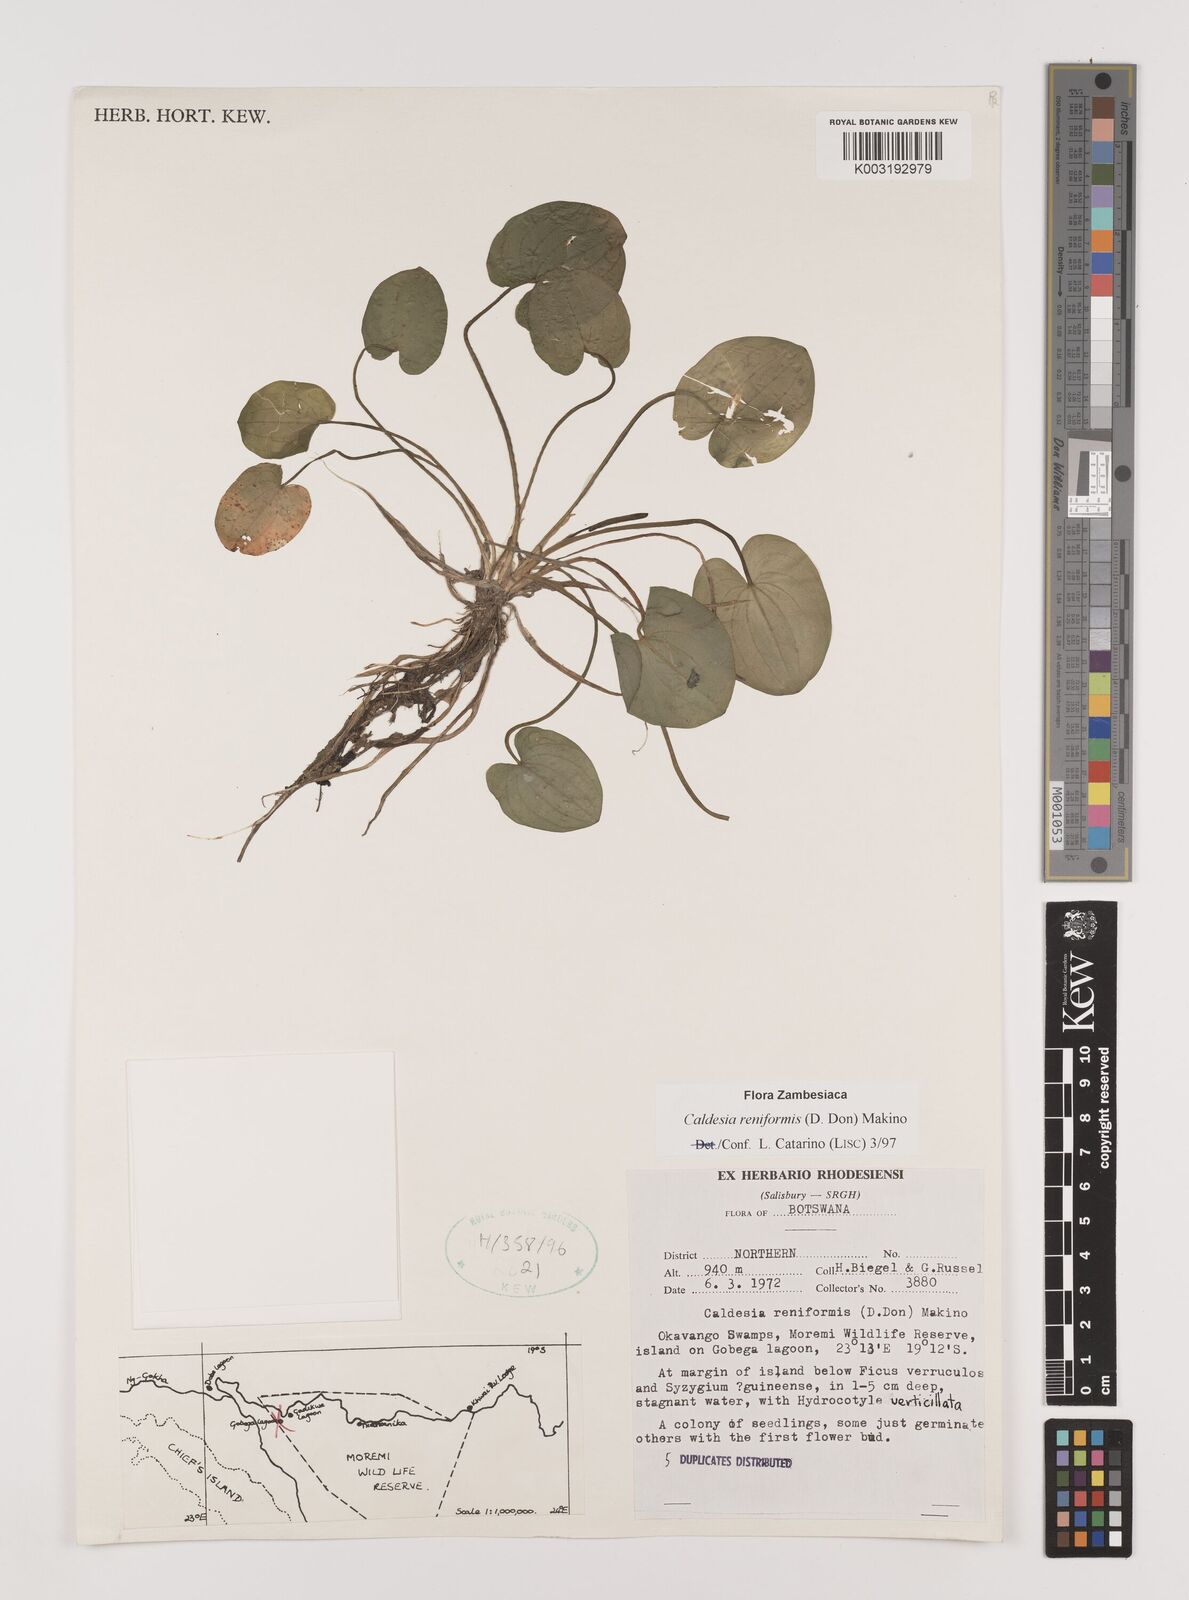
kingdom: Plantae
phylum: Tracheophyta
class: Liliopsida
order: Alismatales
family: Alismataceae
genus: Caldesia
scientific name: Caldesia parnassifolia
